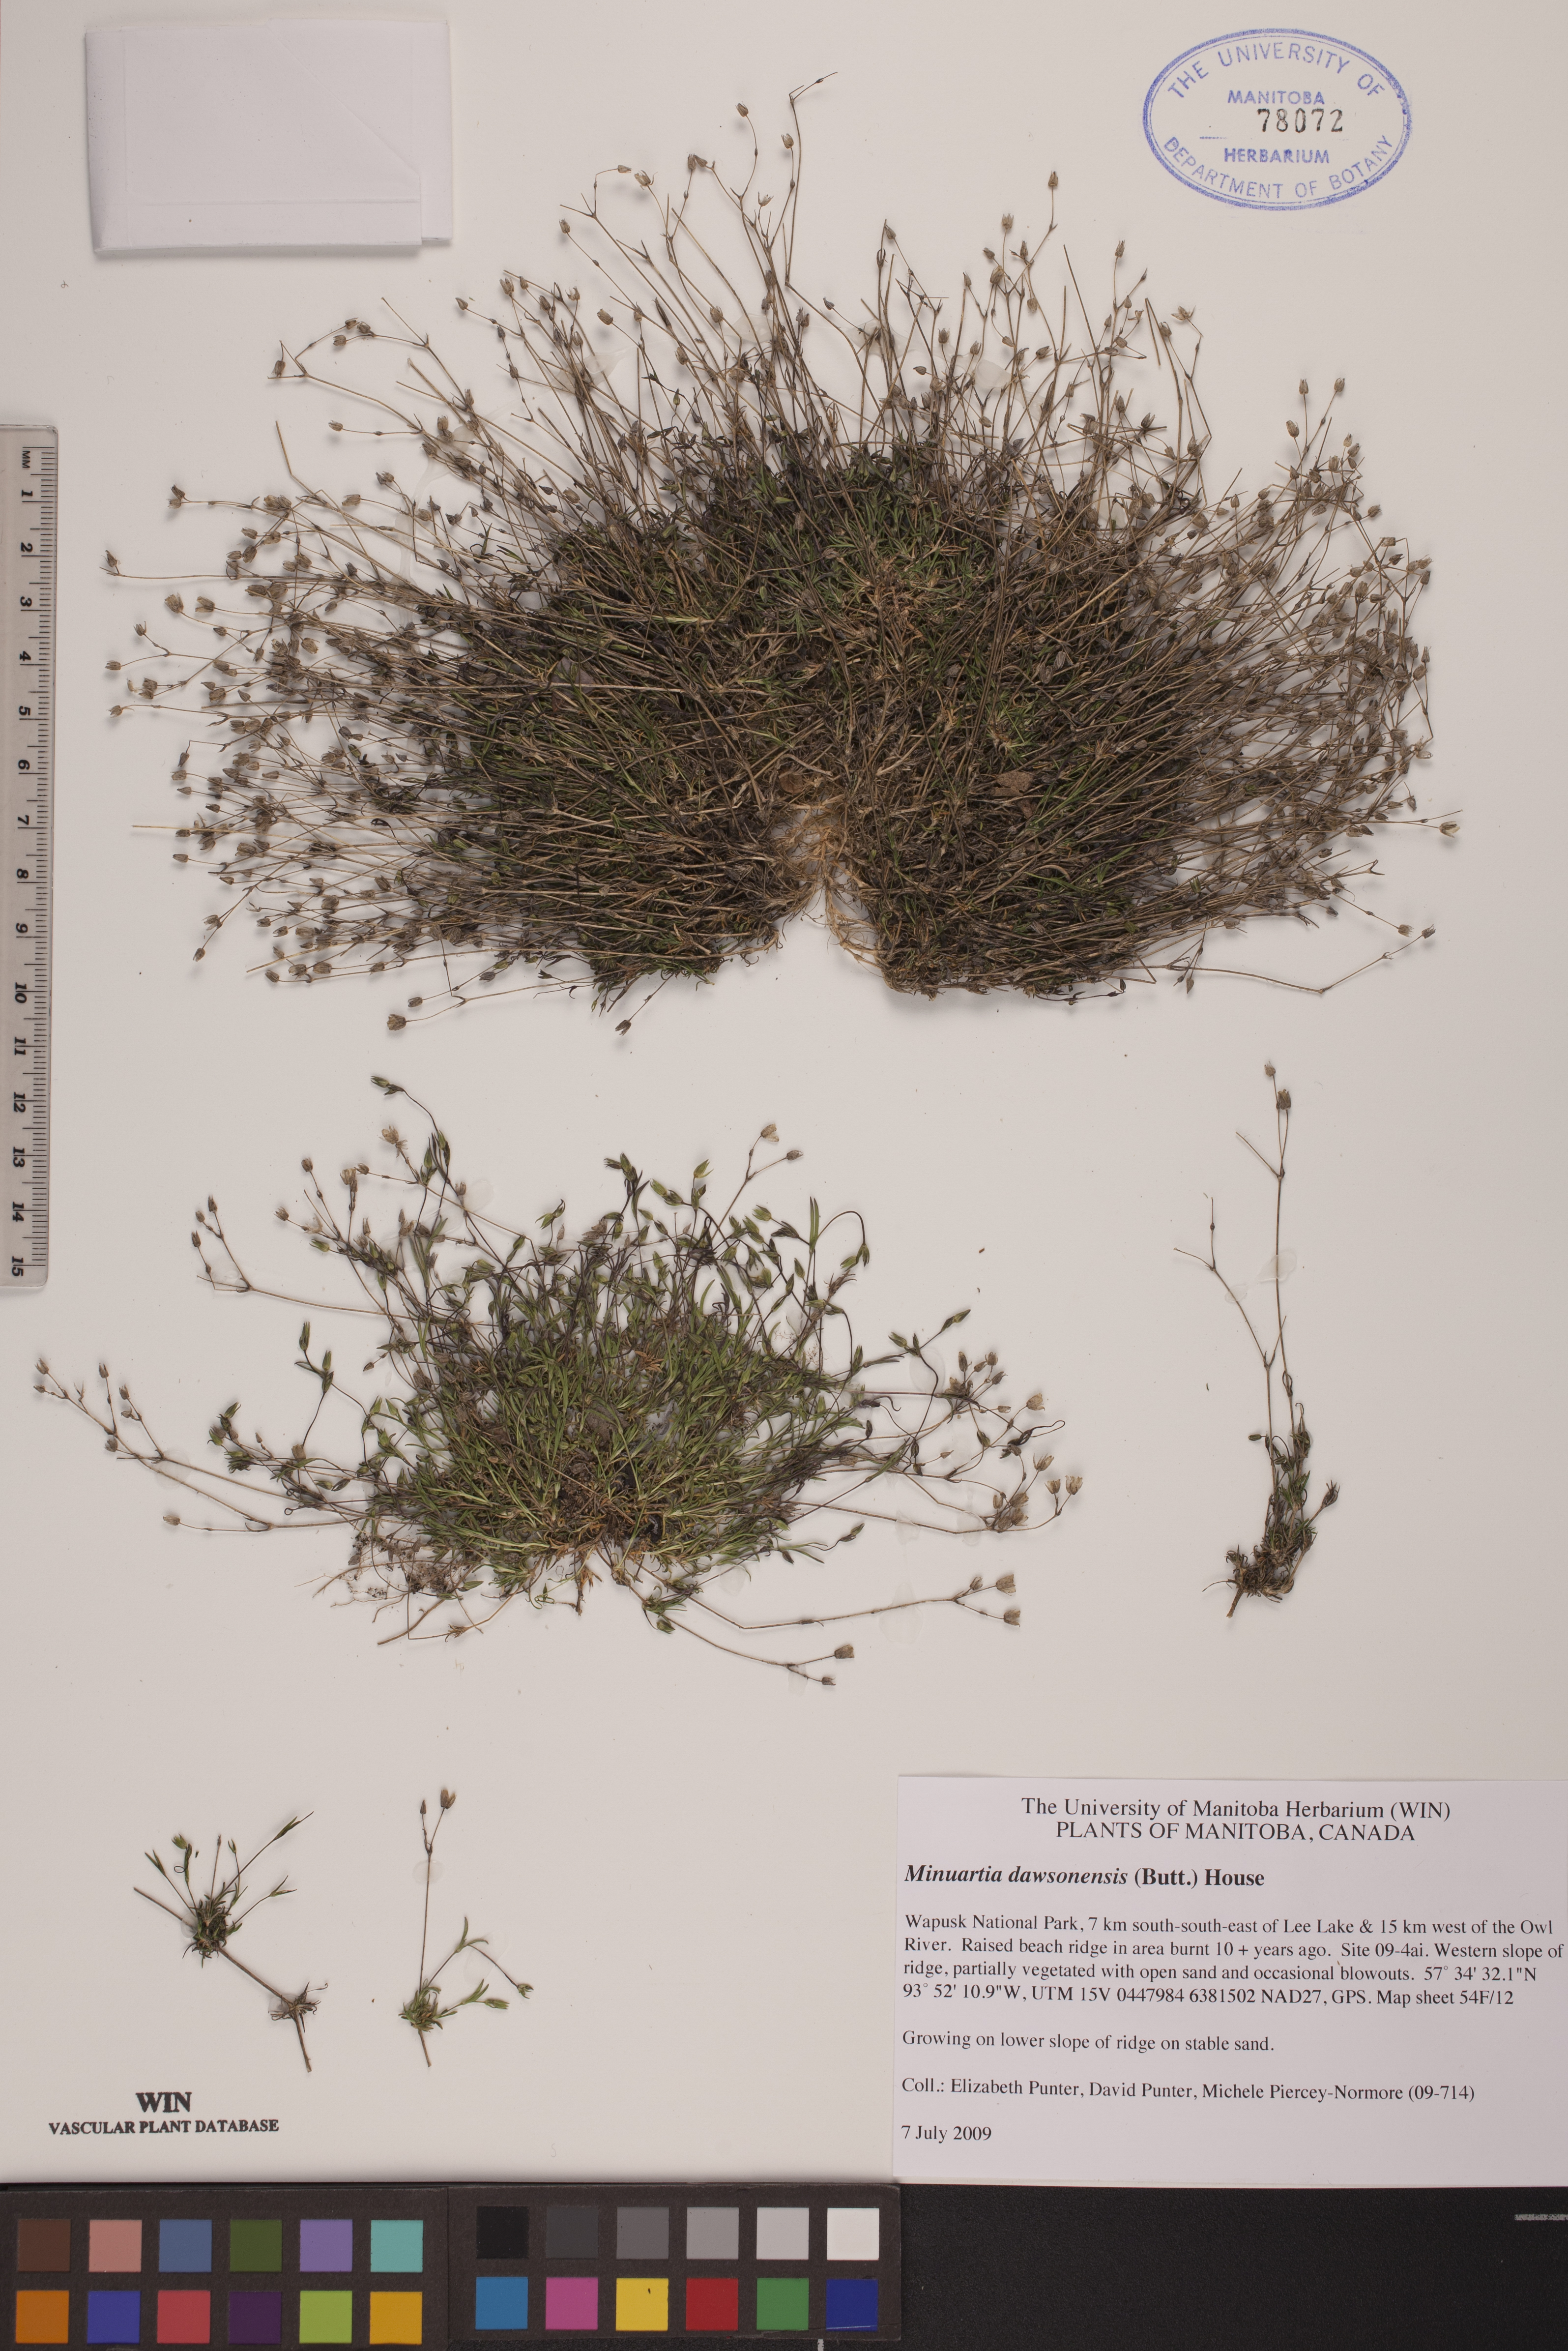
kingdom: Plantae
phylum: Tracheophyta
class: Magnoliopsida
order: Caryophyllales
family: Caryophyllaceae
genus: Sabulina
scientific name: Sabulina dawsonensis
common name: Dawson's cockle
